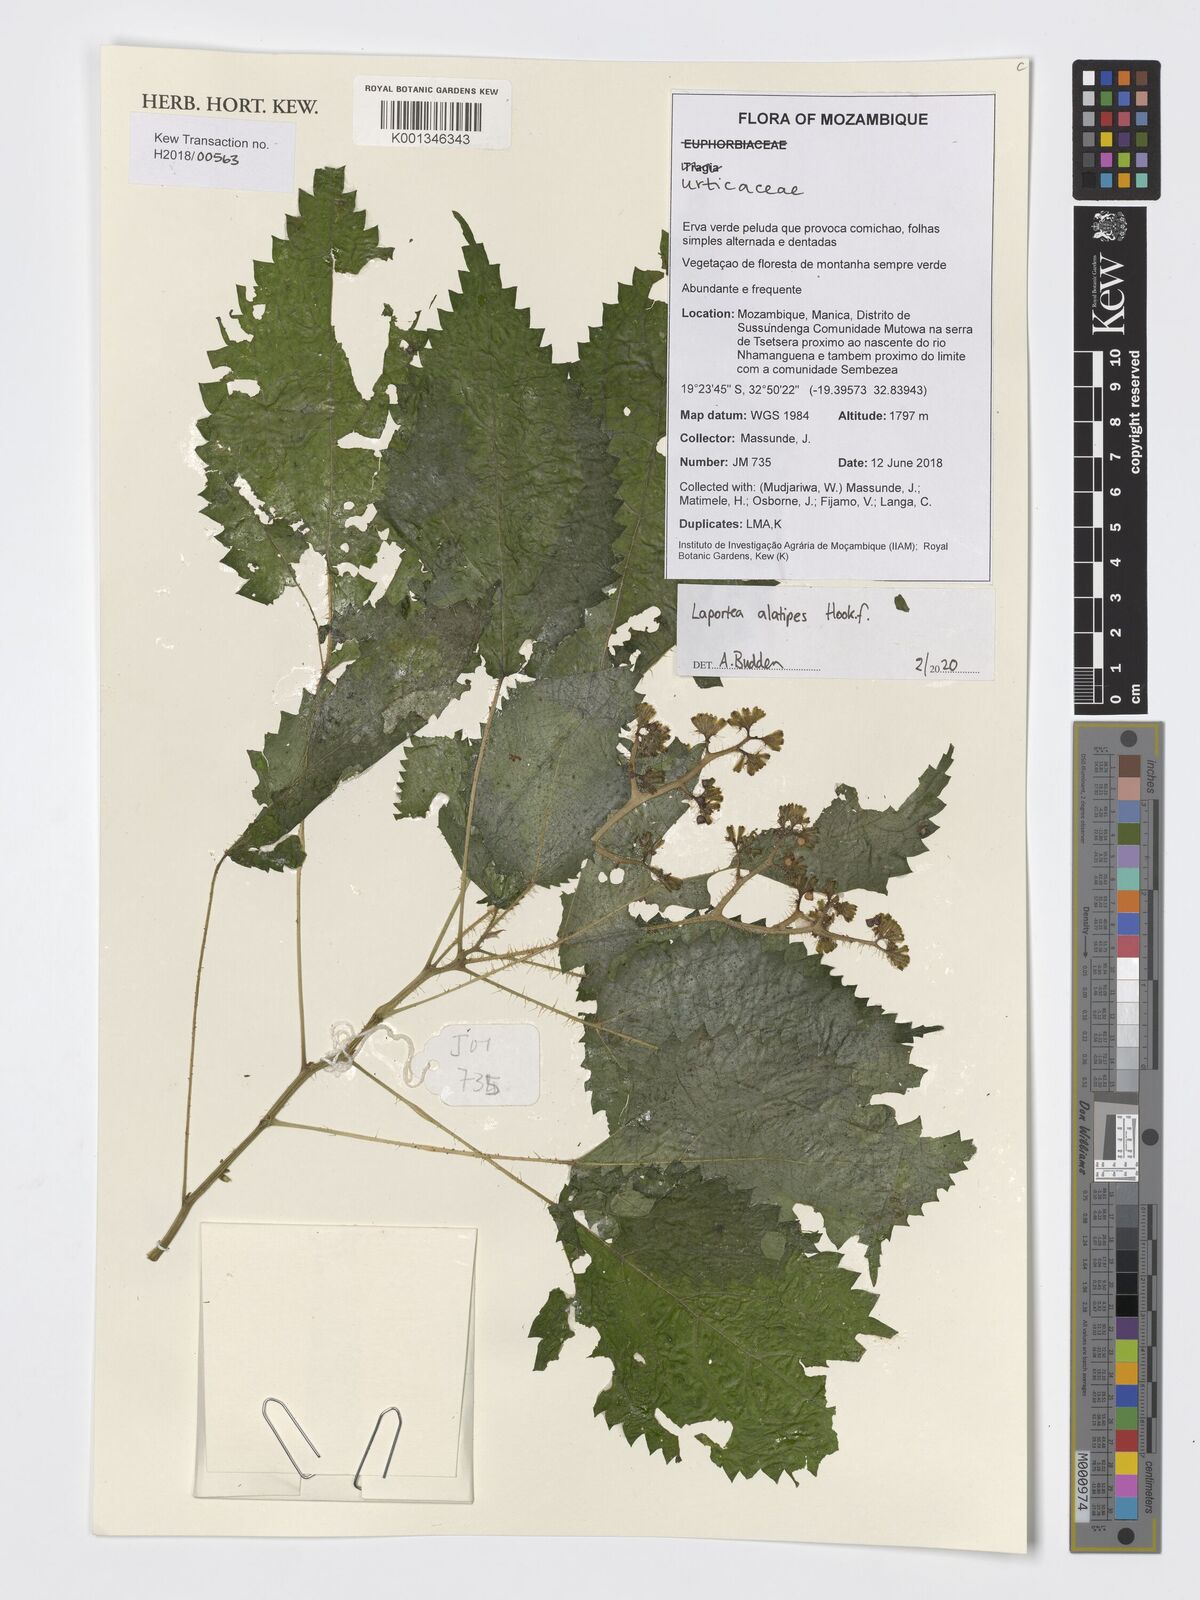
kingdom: Plantae
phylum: Tracheophyta
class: Magnoliopsida
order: Rosales
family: Urticaceae
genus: Laportea
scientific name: Laportea alatipes
